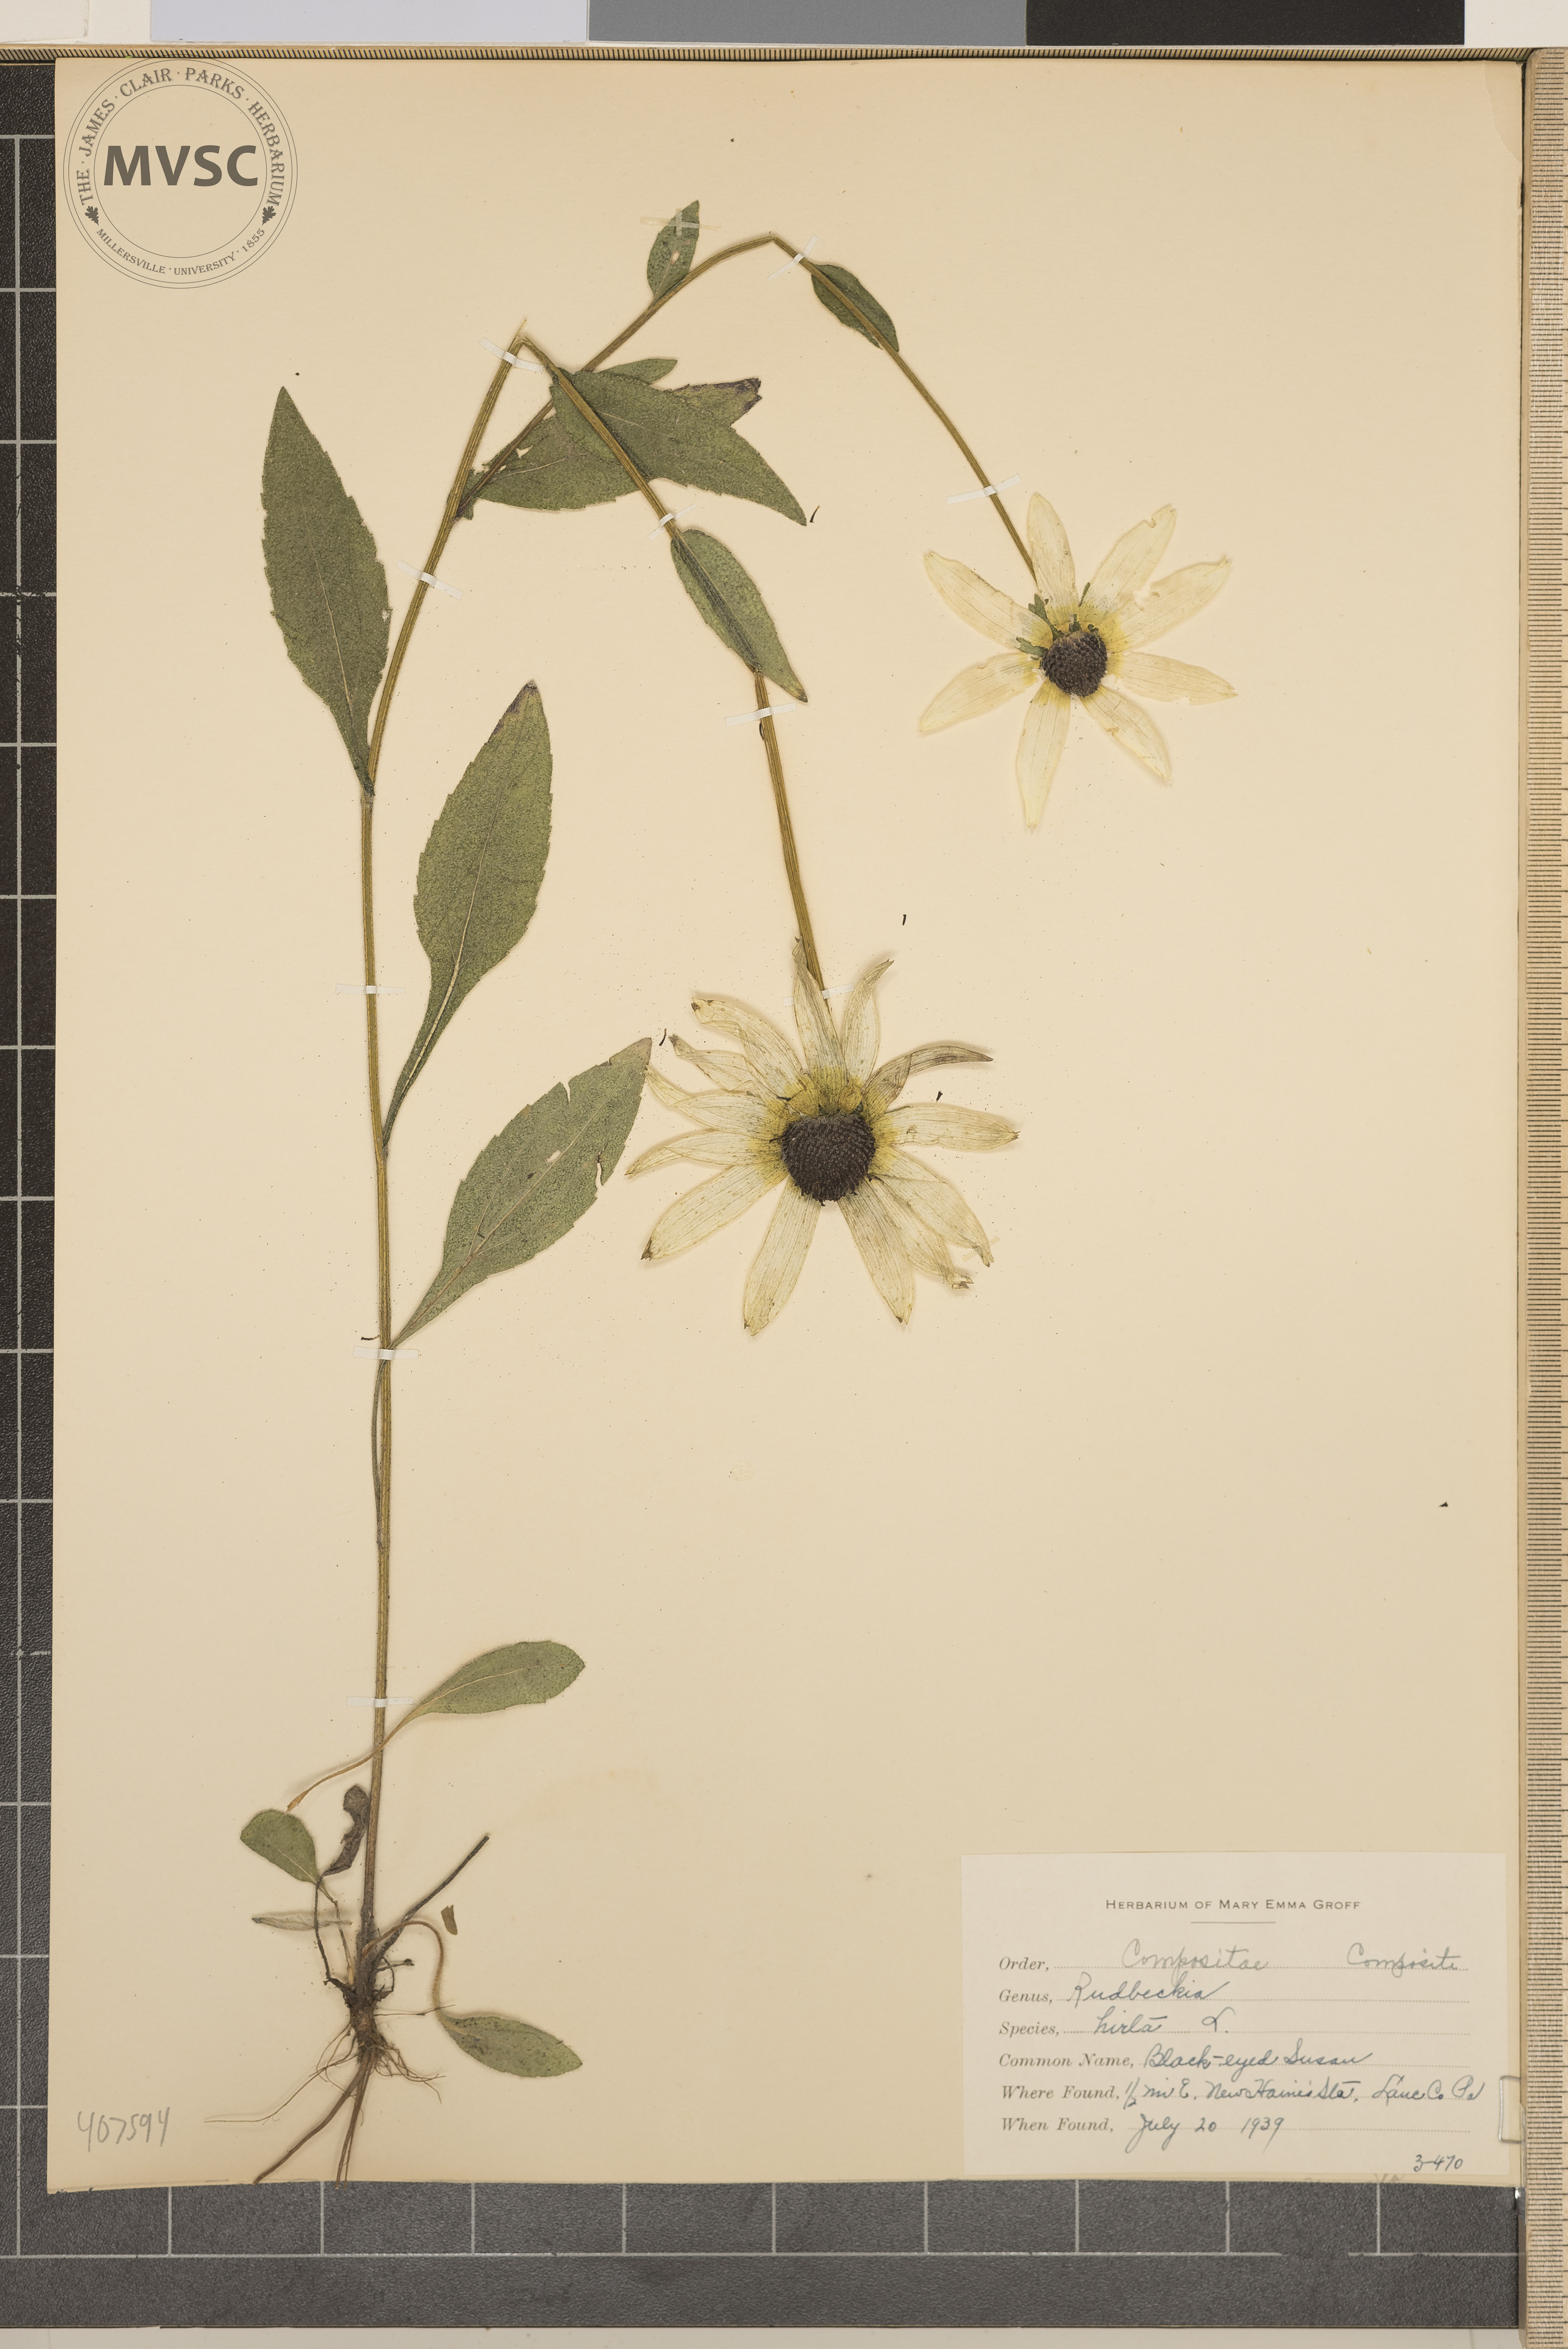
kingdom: Plantae
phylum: Tracheophyta
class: Magnoliopsida
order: Asterales
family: Asteraceae
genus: Rudbeckia
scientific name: Rudbeckia hirta
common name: Black-Eyed Susan
